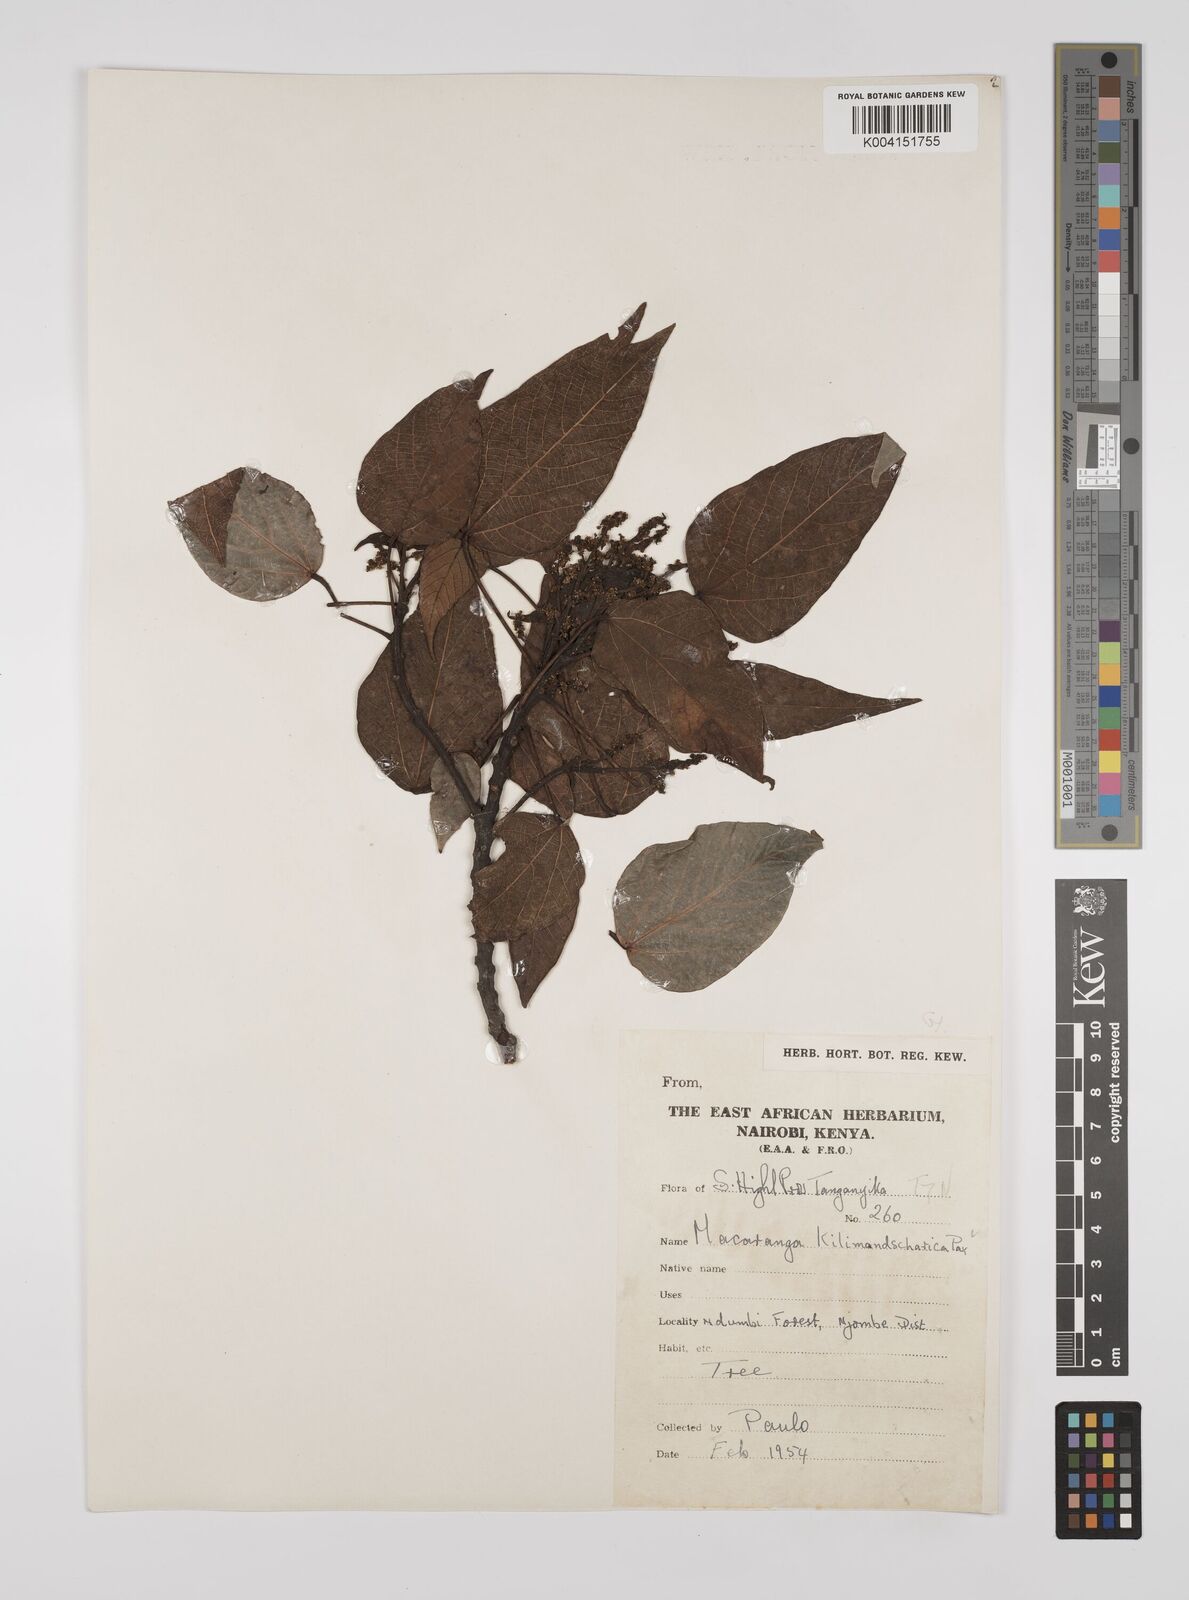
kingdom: Plantae
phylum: Tracheophyta
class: Magnoliopsida
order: Malpighiales
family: Euphorbiaceae
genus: Macaranga
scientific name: Macaranga kilimandscharica
